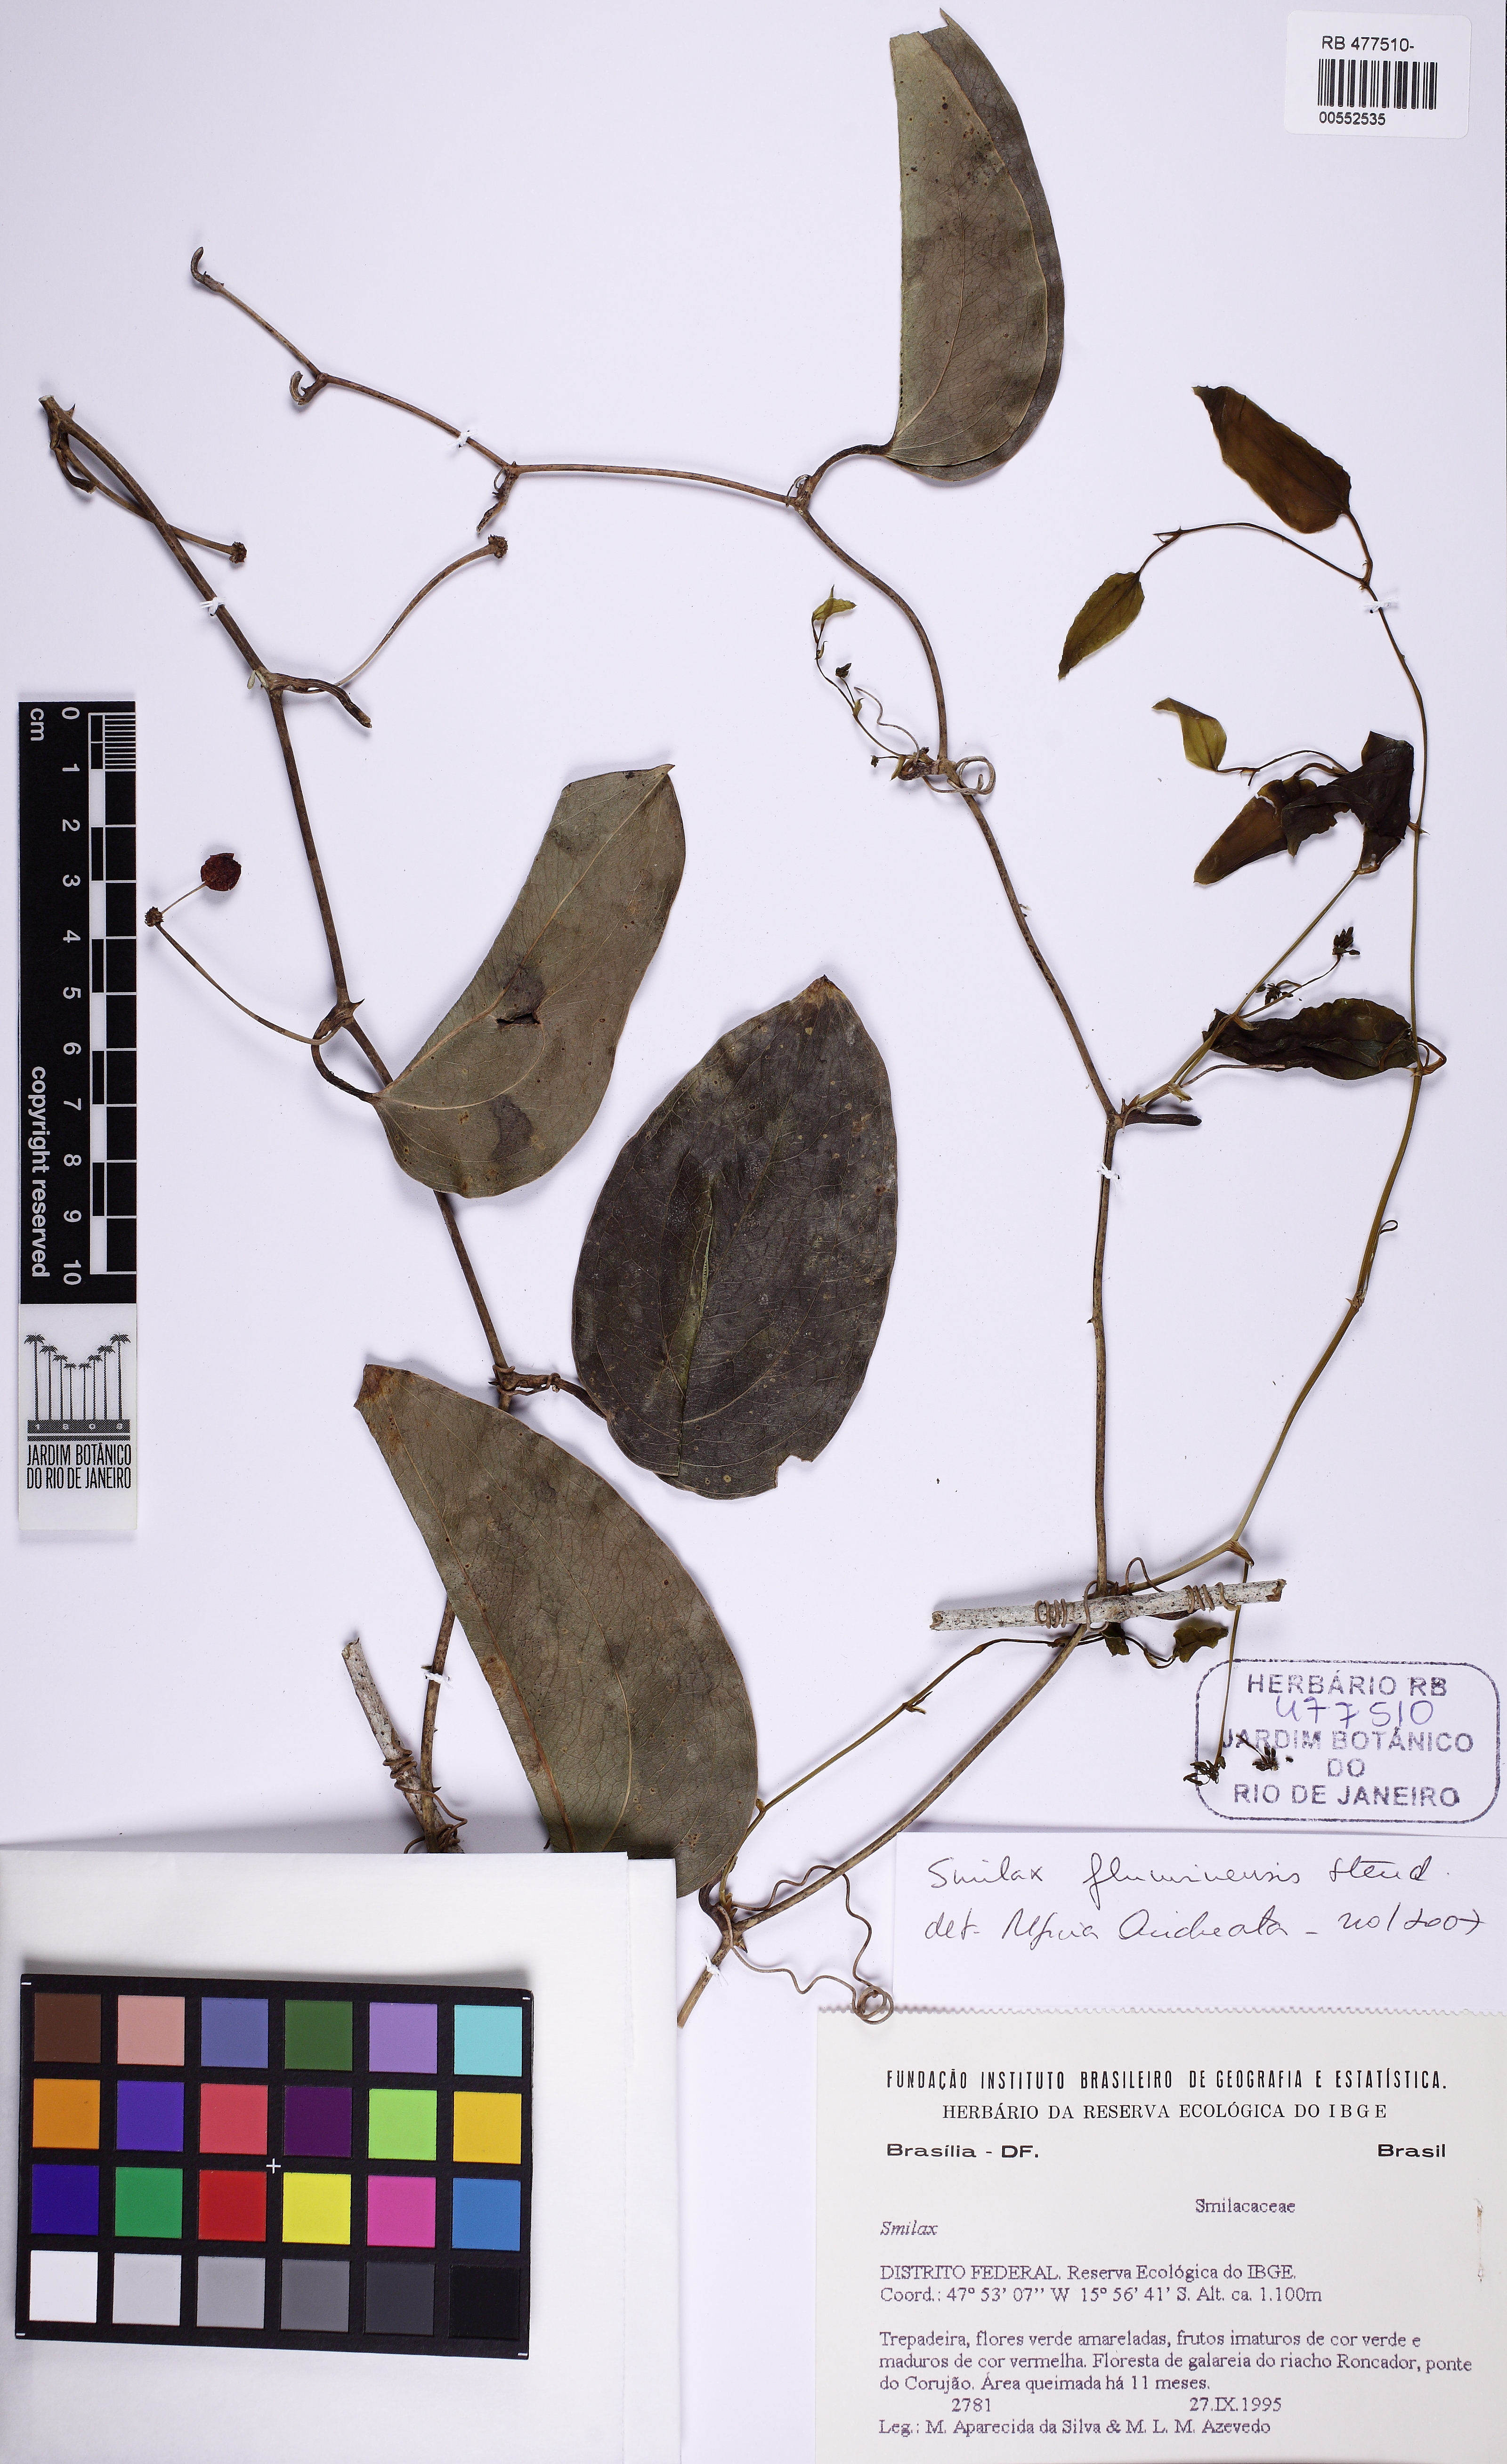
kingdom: Plantae
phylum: Tracheophyta
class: Liliopsida
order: Liliales
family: Smilacaceae
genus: Smilax
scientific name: Smilax fluminensis
